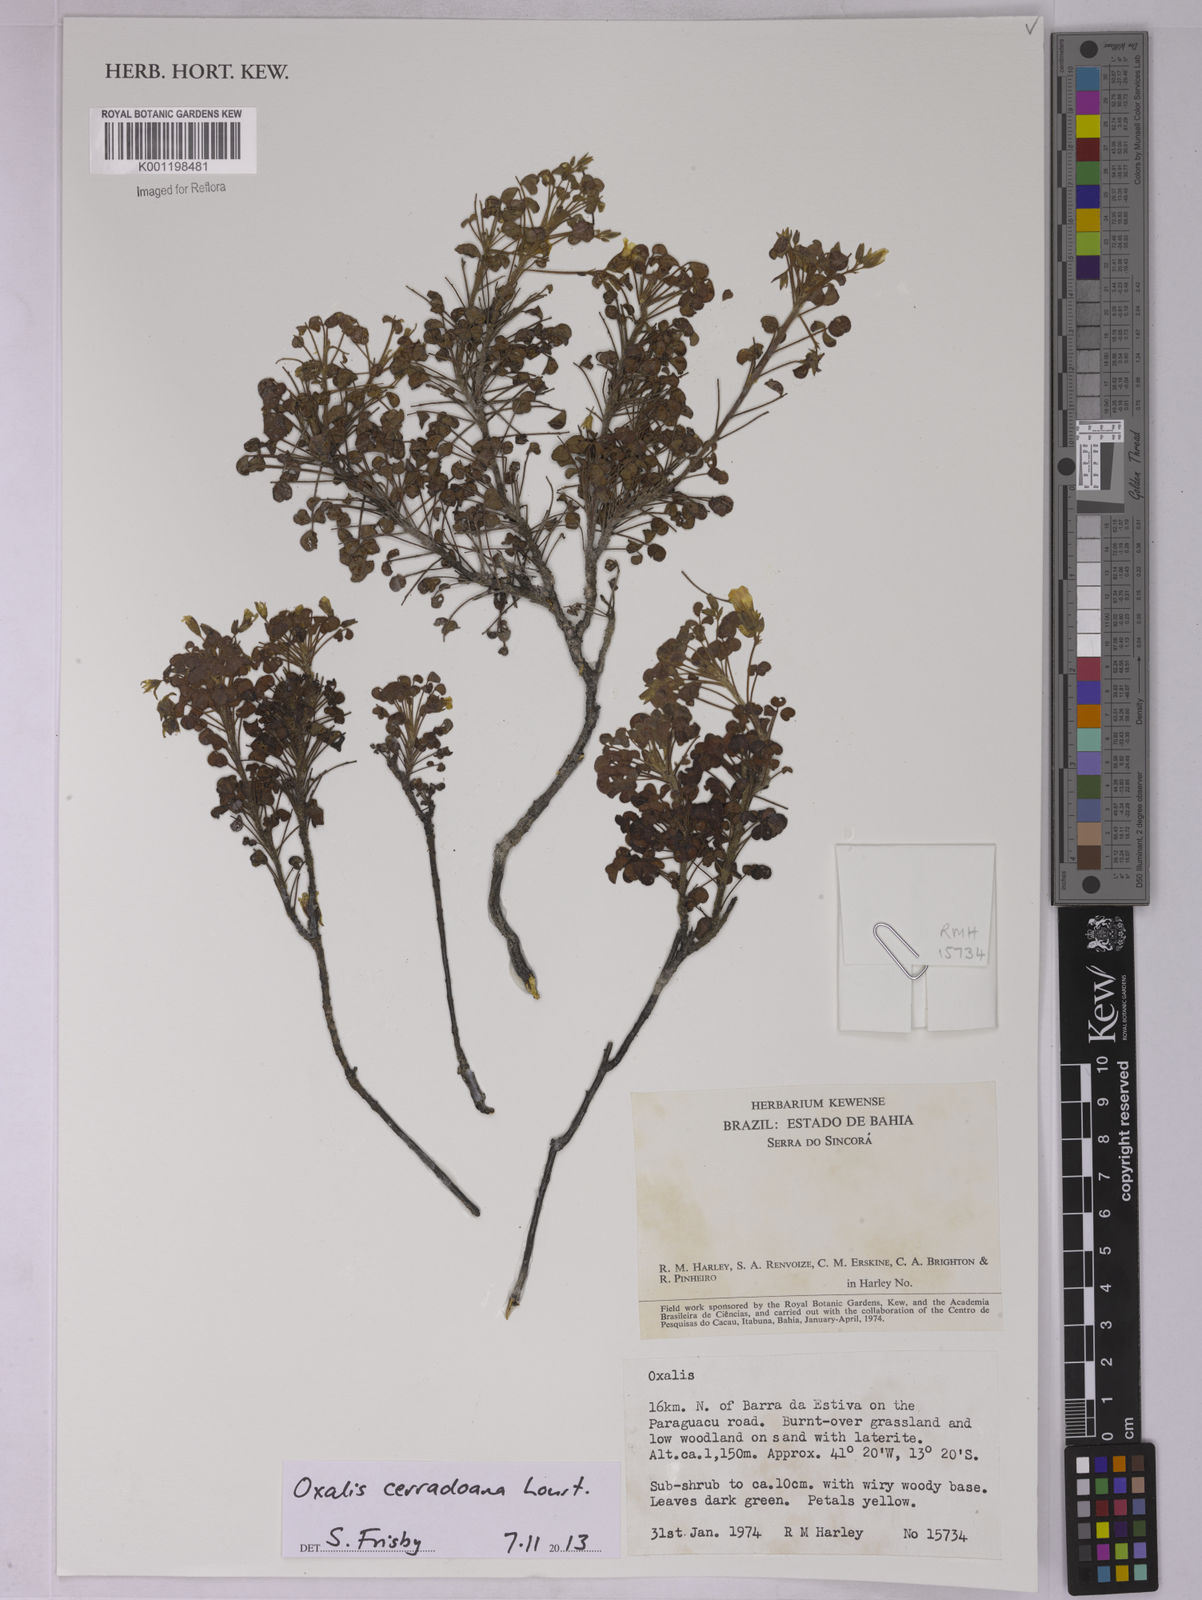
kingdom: Plantae
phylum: Tracheophyta
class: Magnoliopsida
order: Oxalidales
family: Oxalidaceae
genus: Oxalis
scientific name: Oxalis cerradoana
